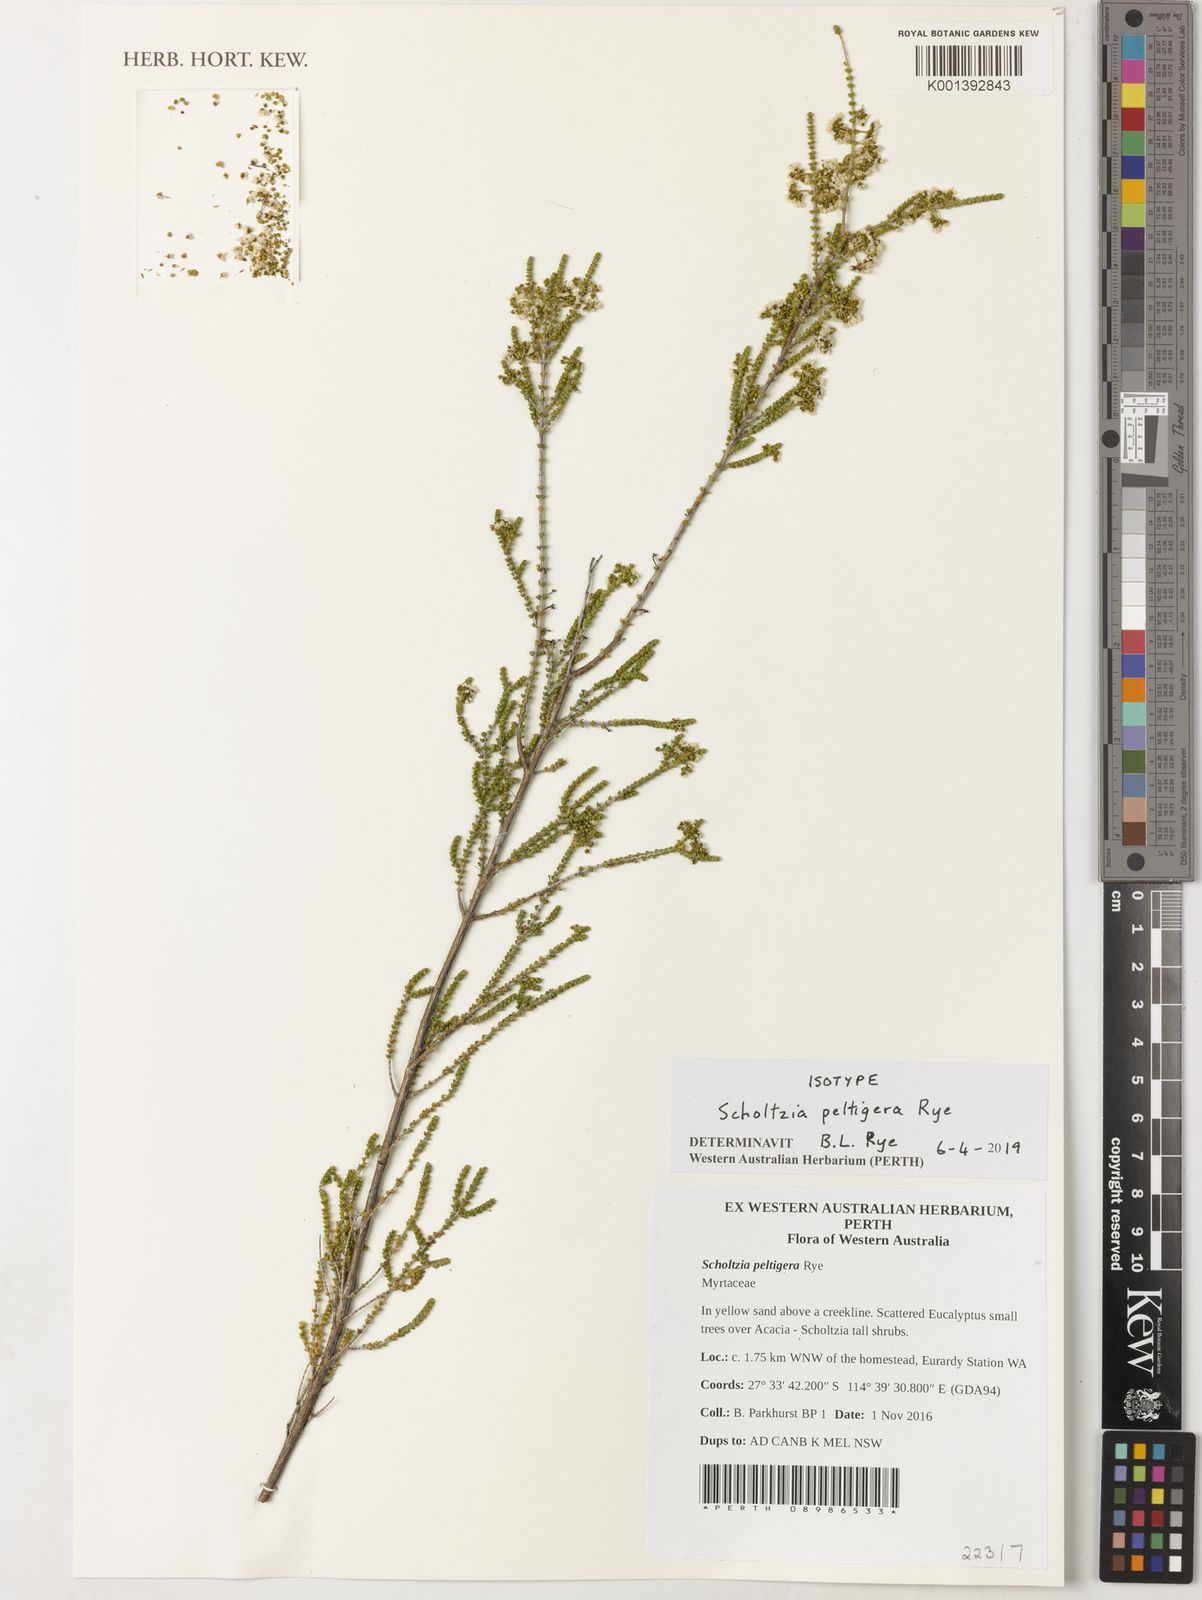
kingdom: Plantae
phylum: Tracheophyta
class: Magnoliopsida
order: Myrtales
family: Myrtaceae
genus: Scholtzia
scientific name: Scholtzia
